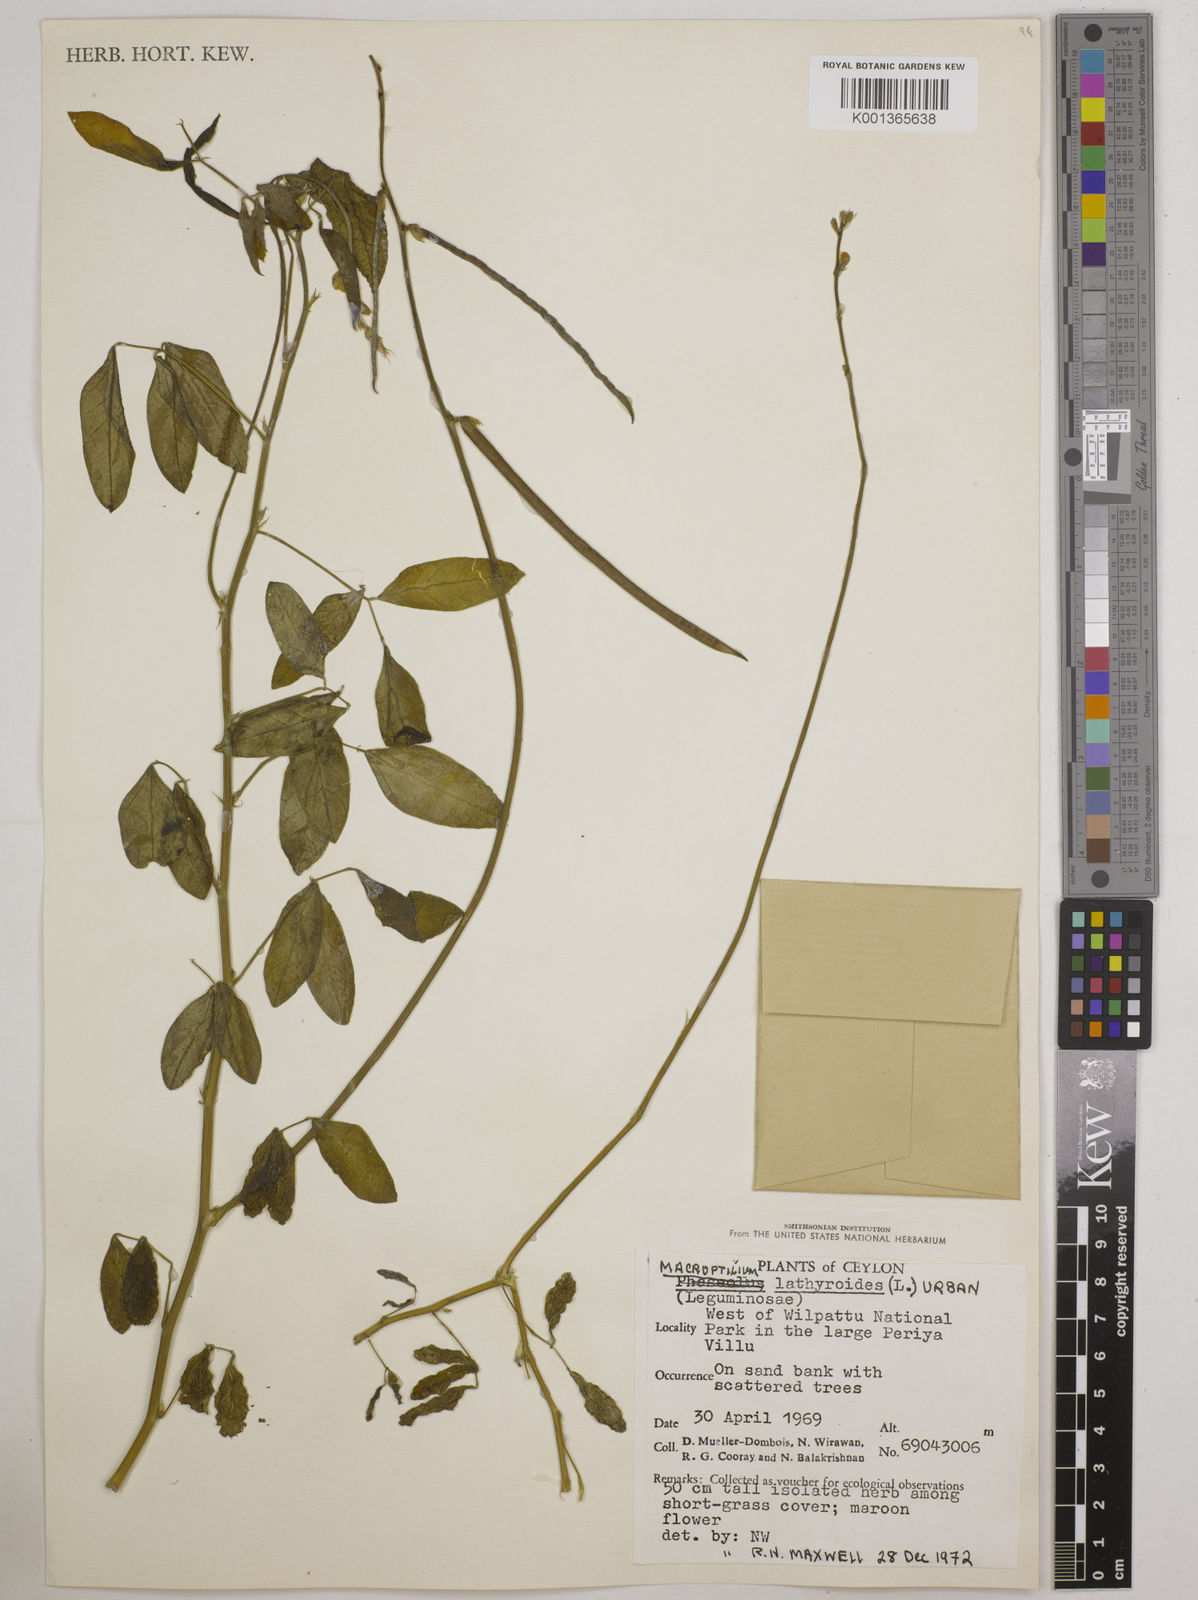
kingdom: Plantae
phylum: Tracheophyta
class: Magnoliopsida
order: Fabales
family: Fabaceae
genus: Macroptilium
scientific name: Macroptilium lathyroides
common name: Wild bushbean
